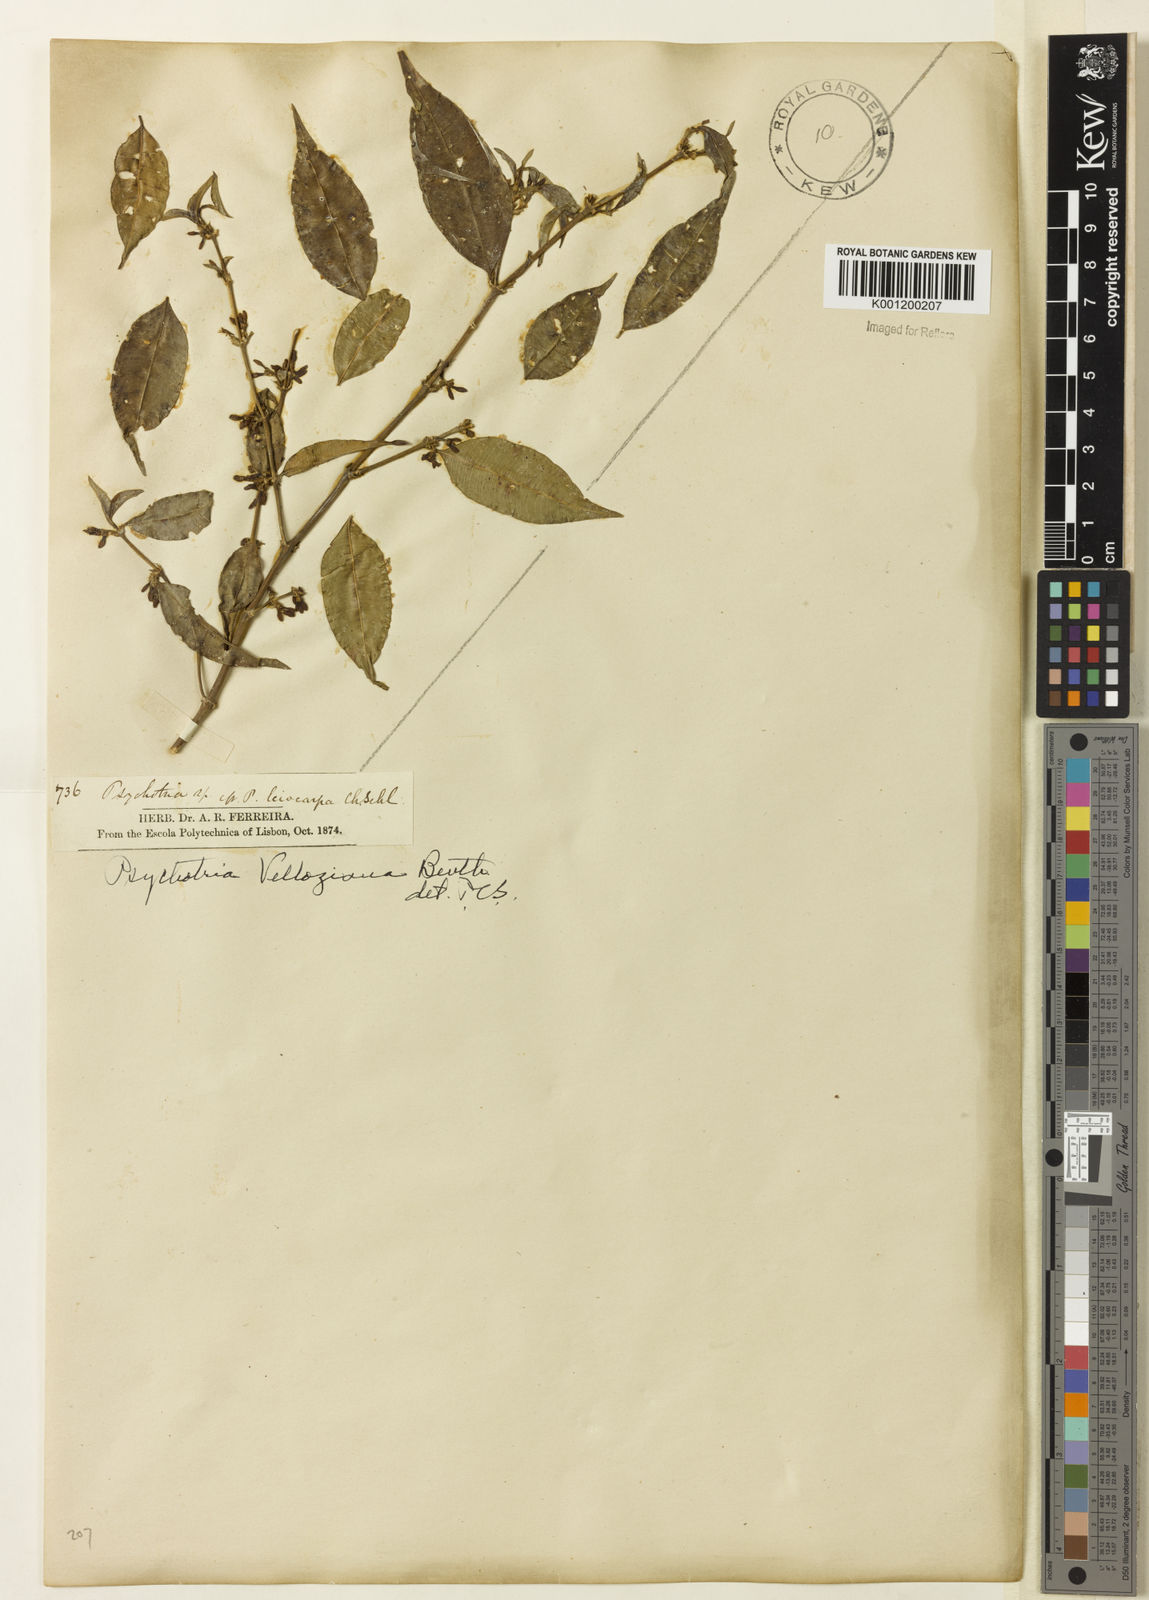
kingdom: Plantae
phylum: Tracheophyta
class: Magnoliopsida
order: Gentianales
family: Rubiaceae
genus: Rudgea
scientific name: Rudgea sessilis
